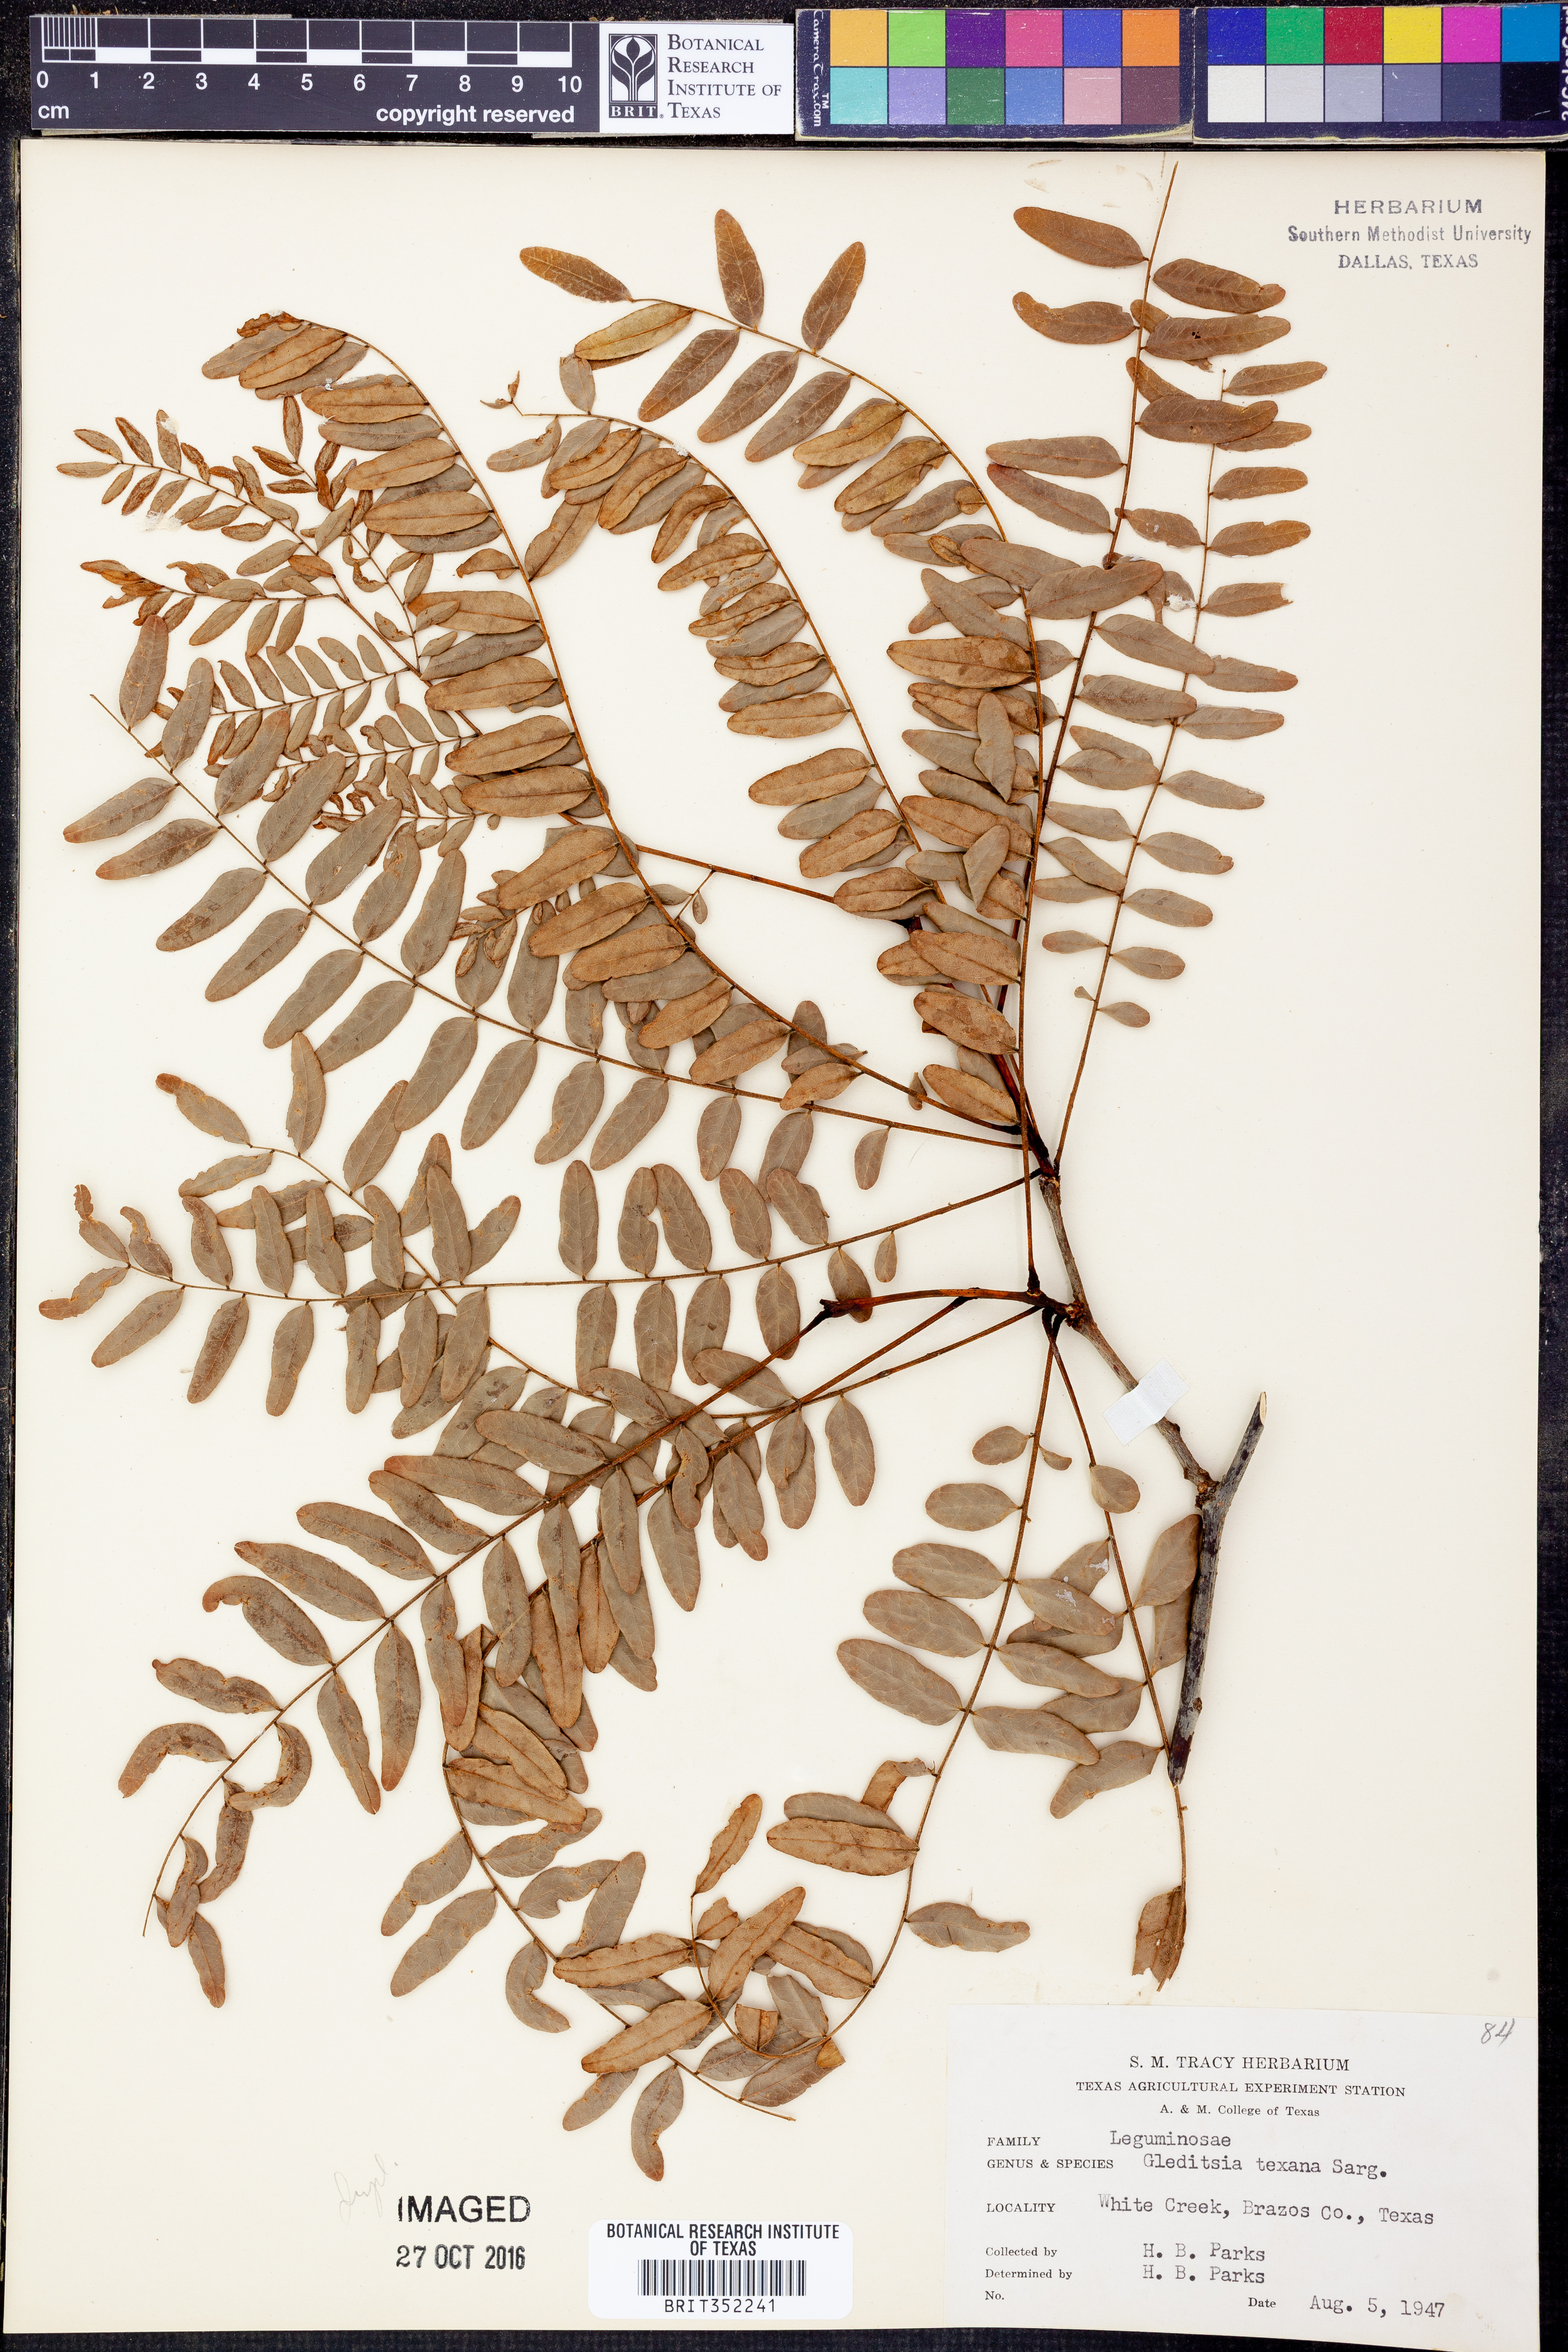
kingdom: Plantae
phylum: Tracheophyta
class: Magnoliopsida
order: Fabales
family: Fabaceae
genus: Gleditsia
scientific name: Gleditsia texana
